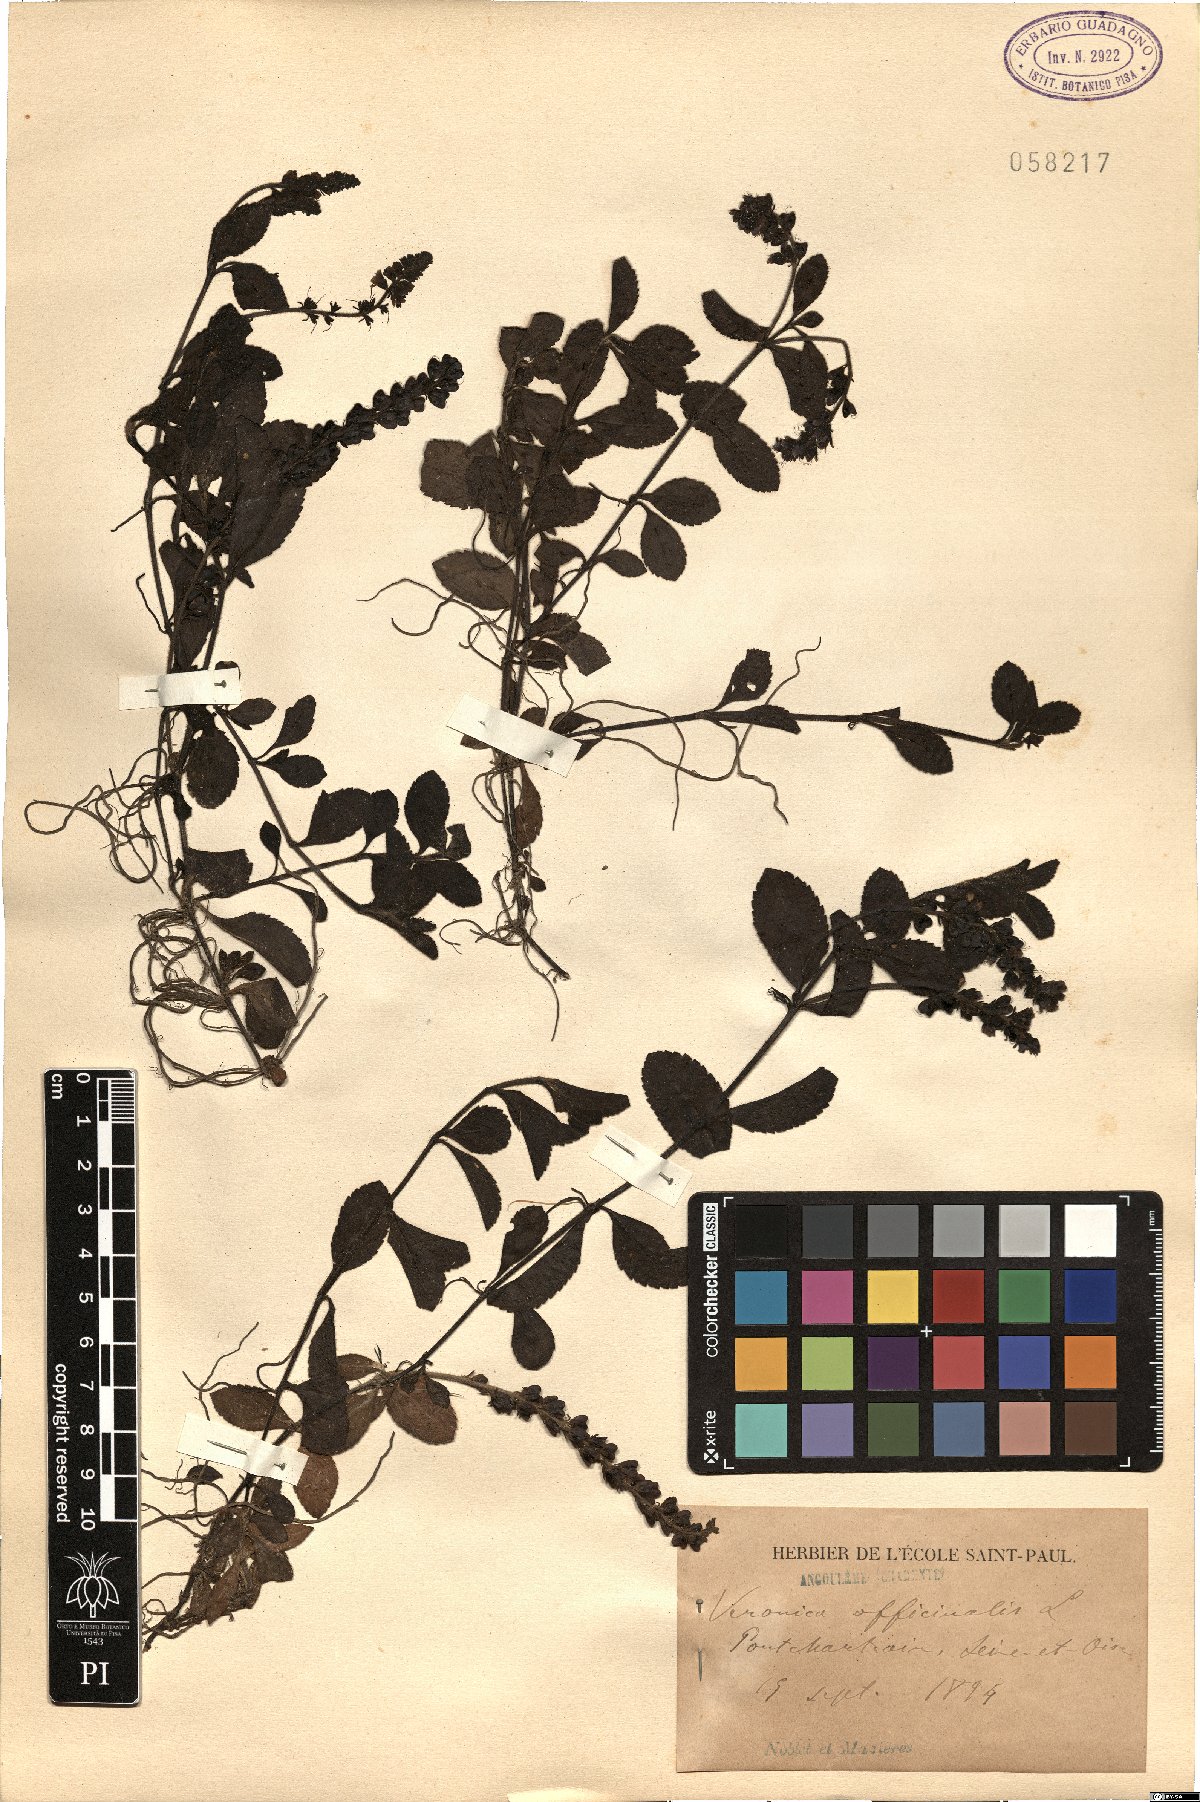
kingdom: Plantae
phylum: Tracheophyta
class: Magnoliopsida
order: Lamiales
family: Plantaginaceae
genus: Veronica
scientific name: Veronica officinalis
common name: Common speedwell
